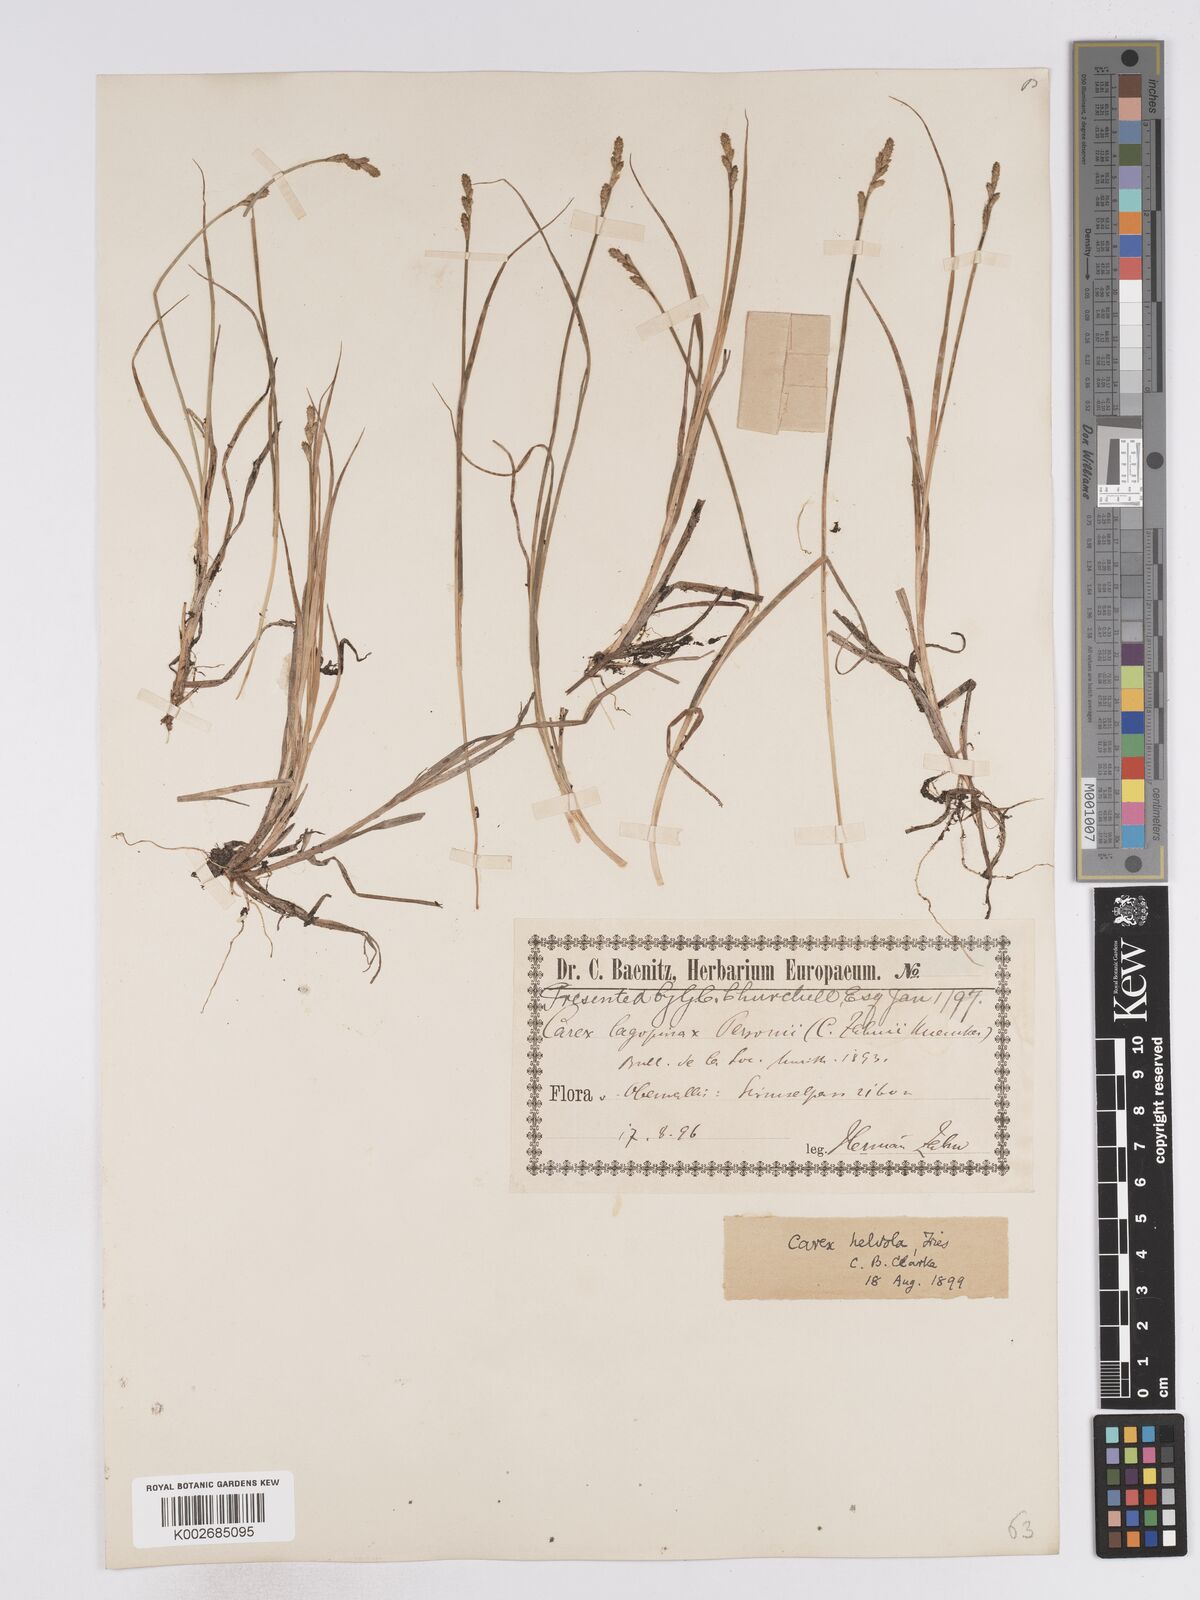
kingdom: Plantae
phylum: Tracheophyta
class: Liliopsida
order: Poales
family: Cyperaceae
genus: Carex
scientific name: Carex brunnescens
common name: Brown sedge
